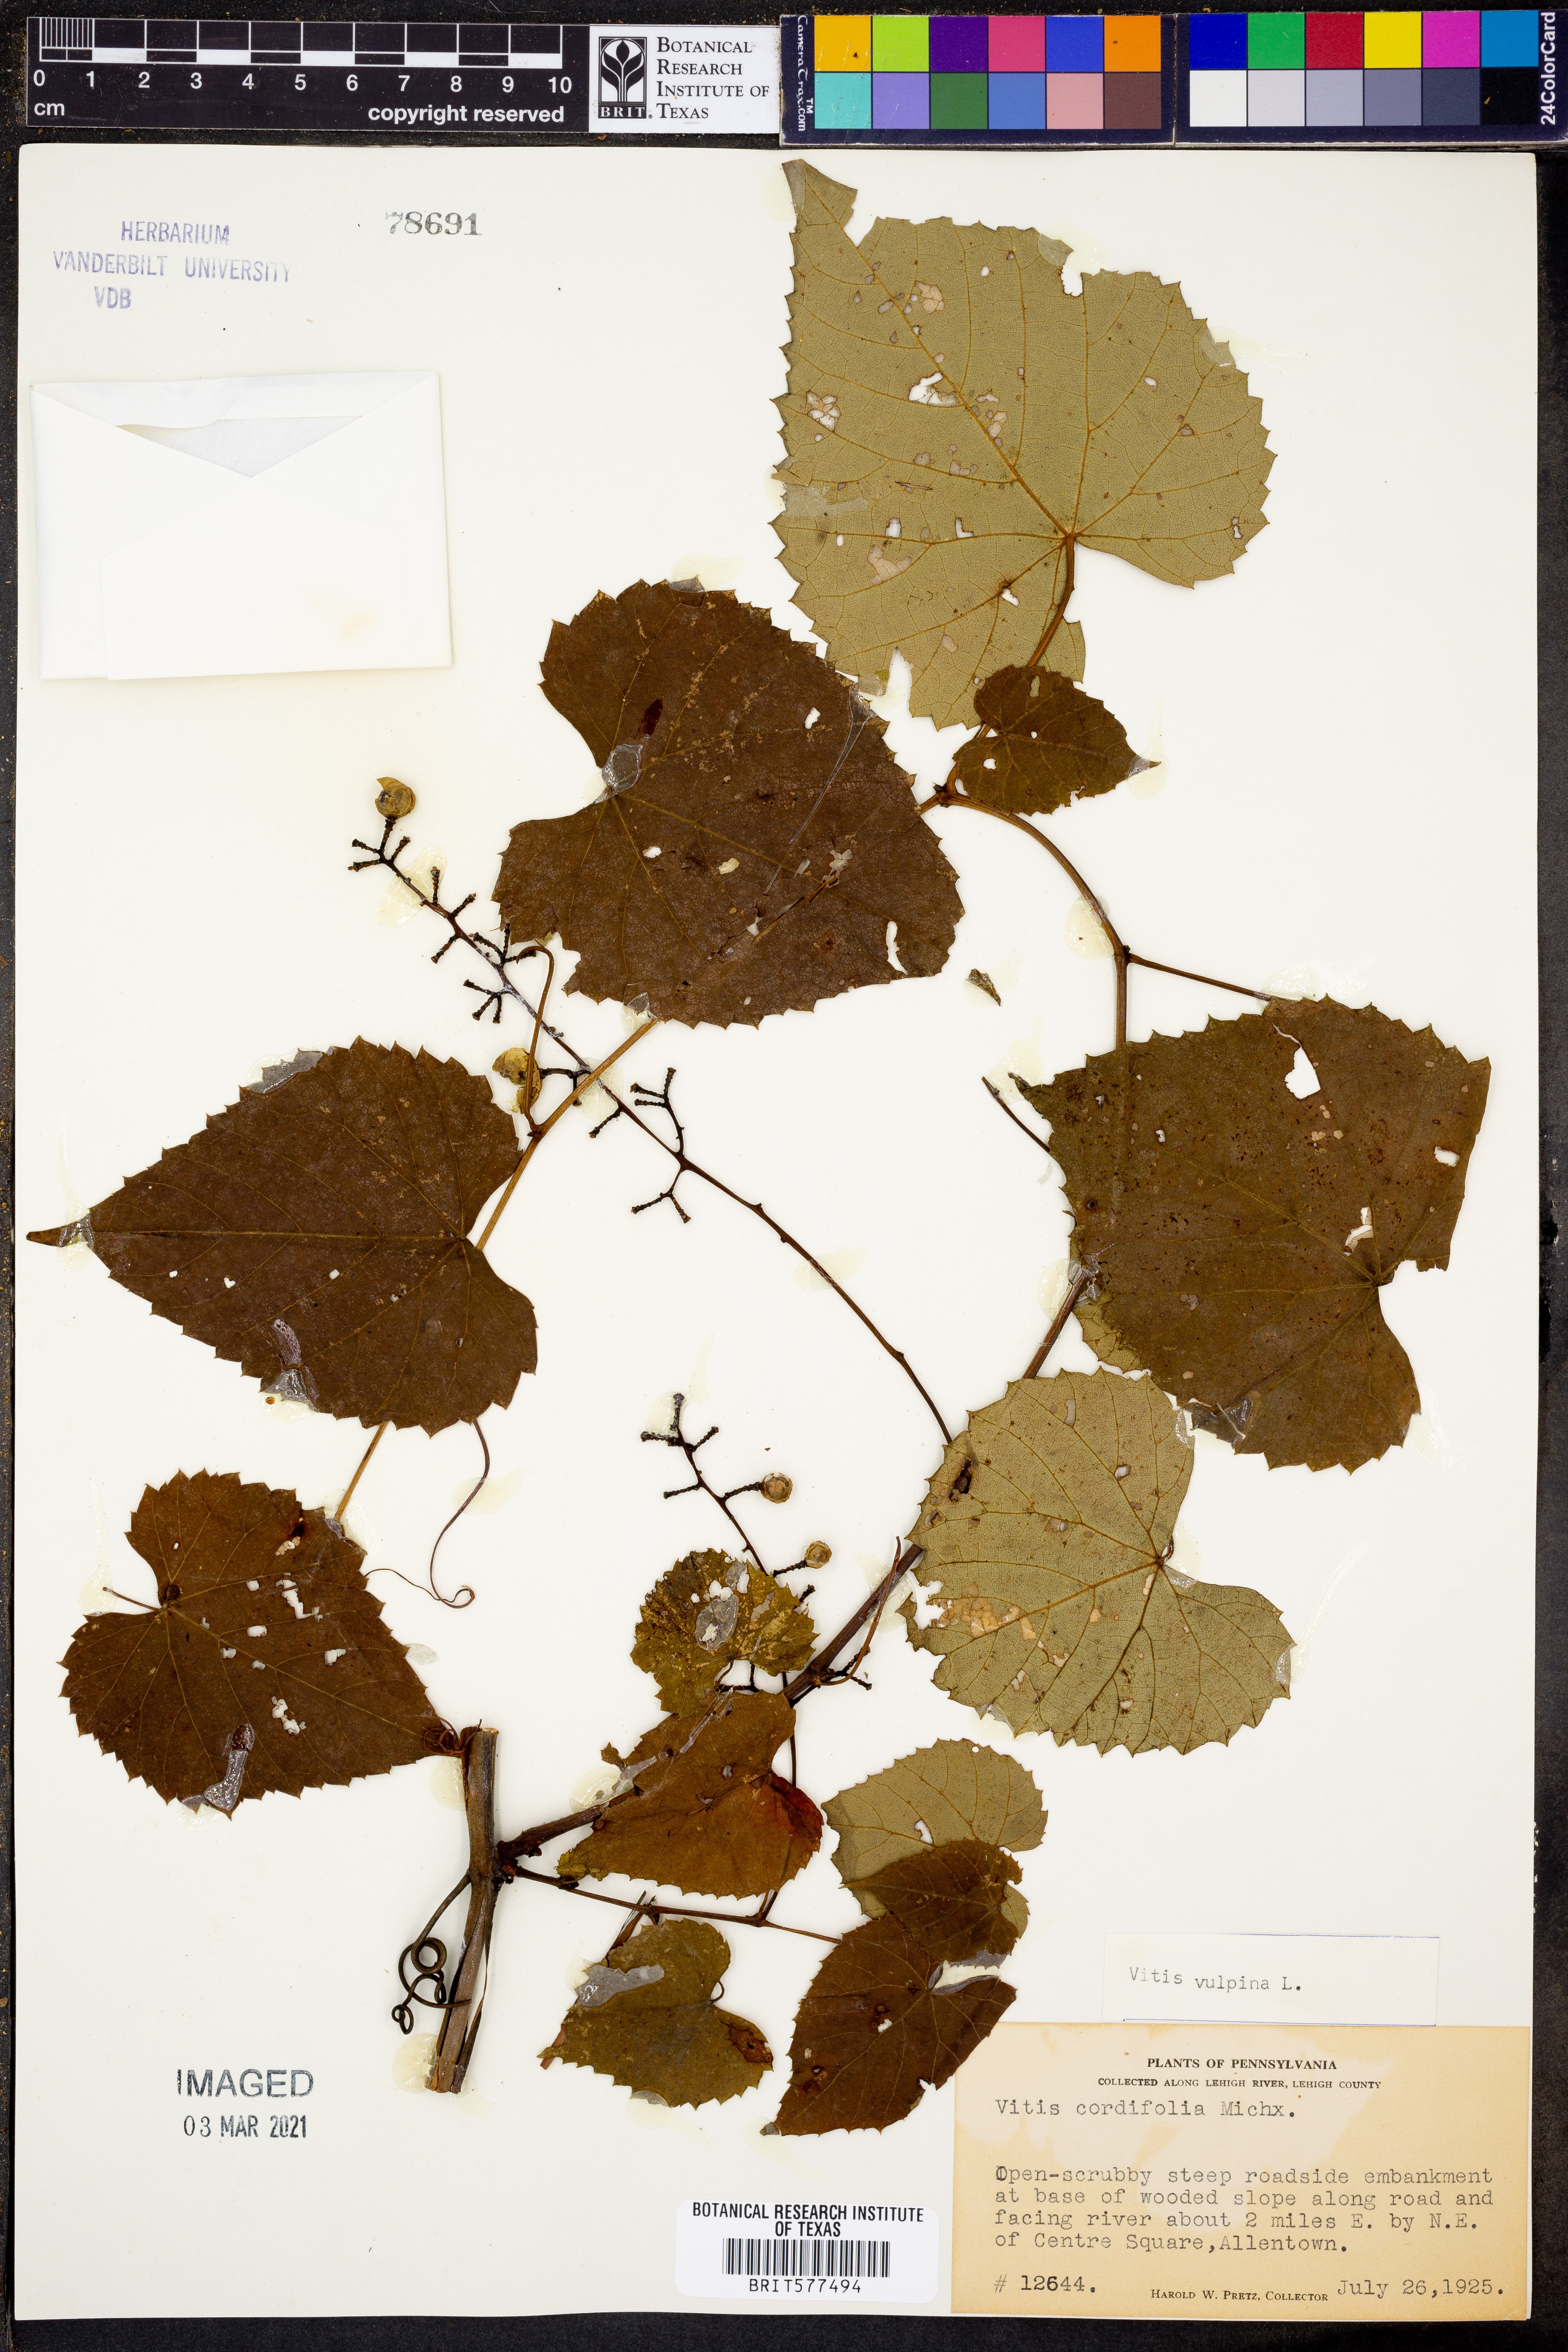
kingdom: Plantae
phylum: Tracheophyta
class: Magnoliopsida
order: Vitales
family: Vitaceae
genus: Vitis
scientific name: Vitis cordifolia
